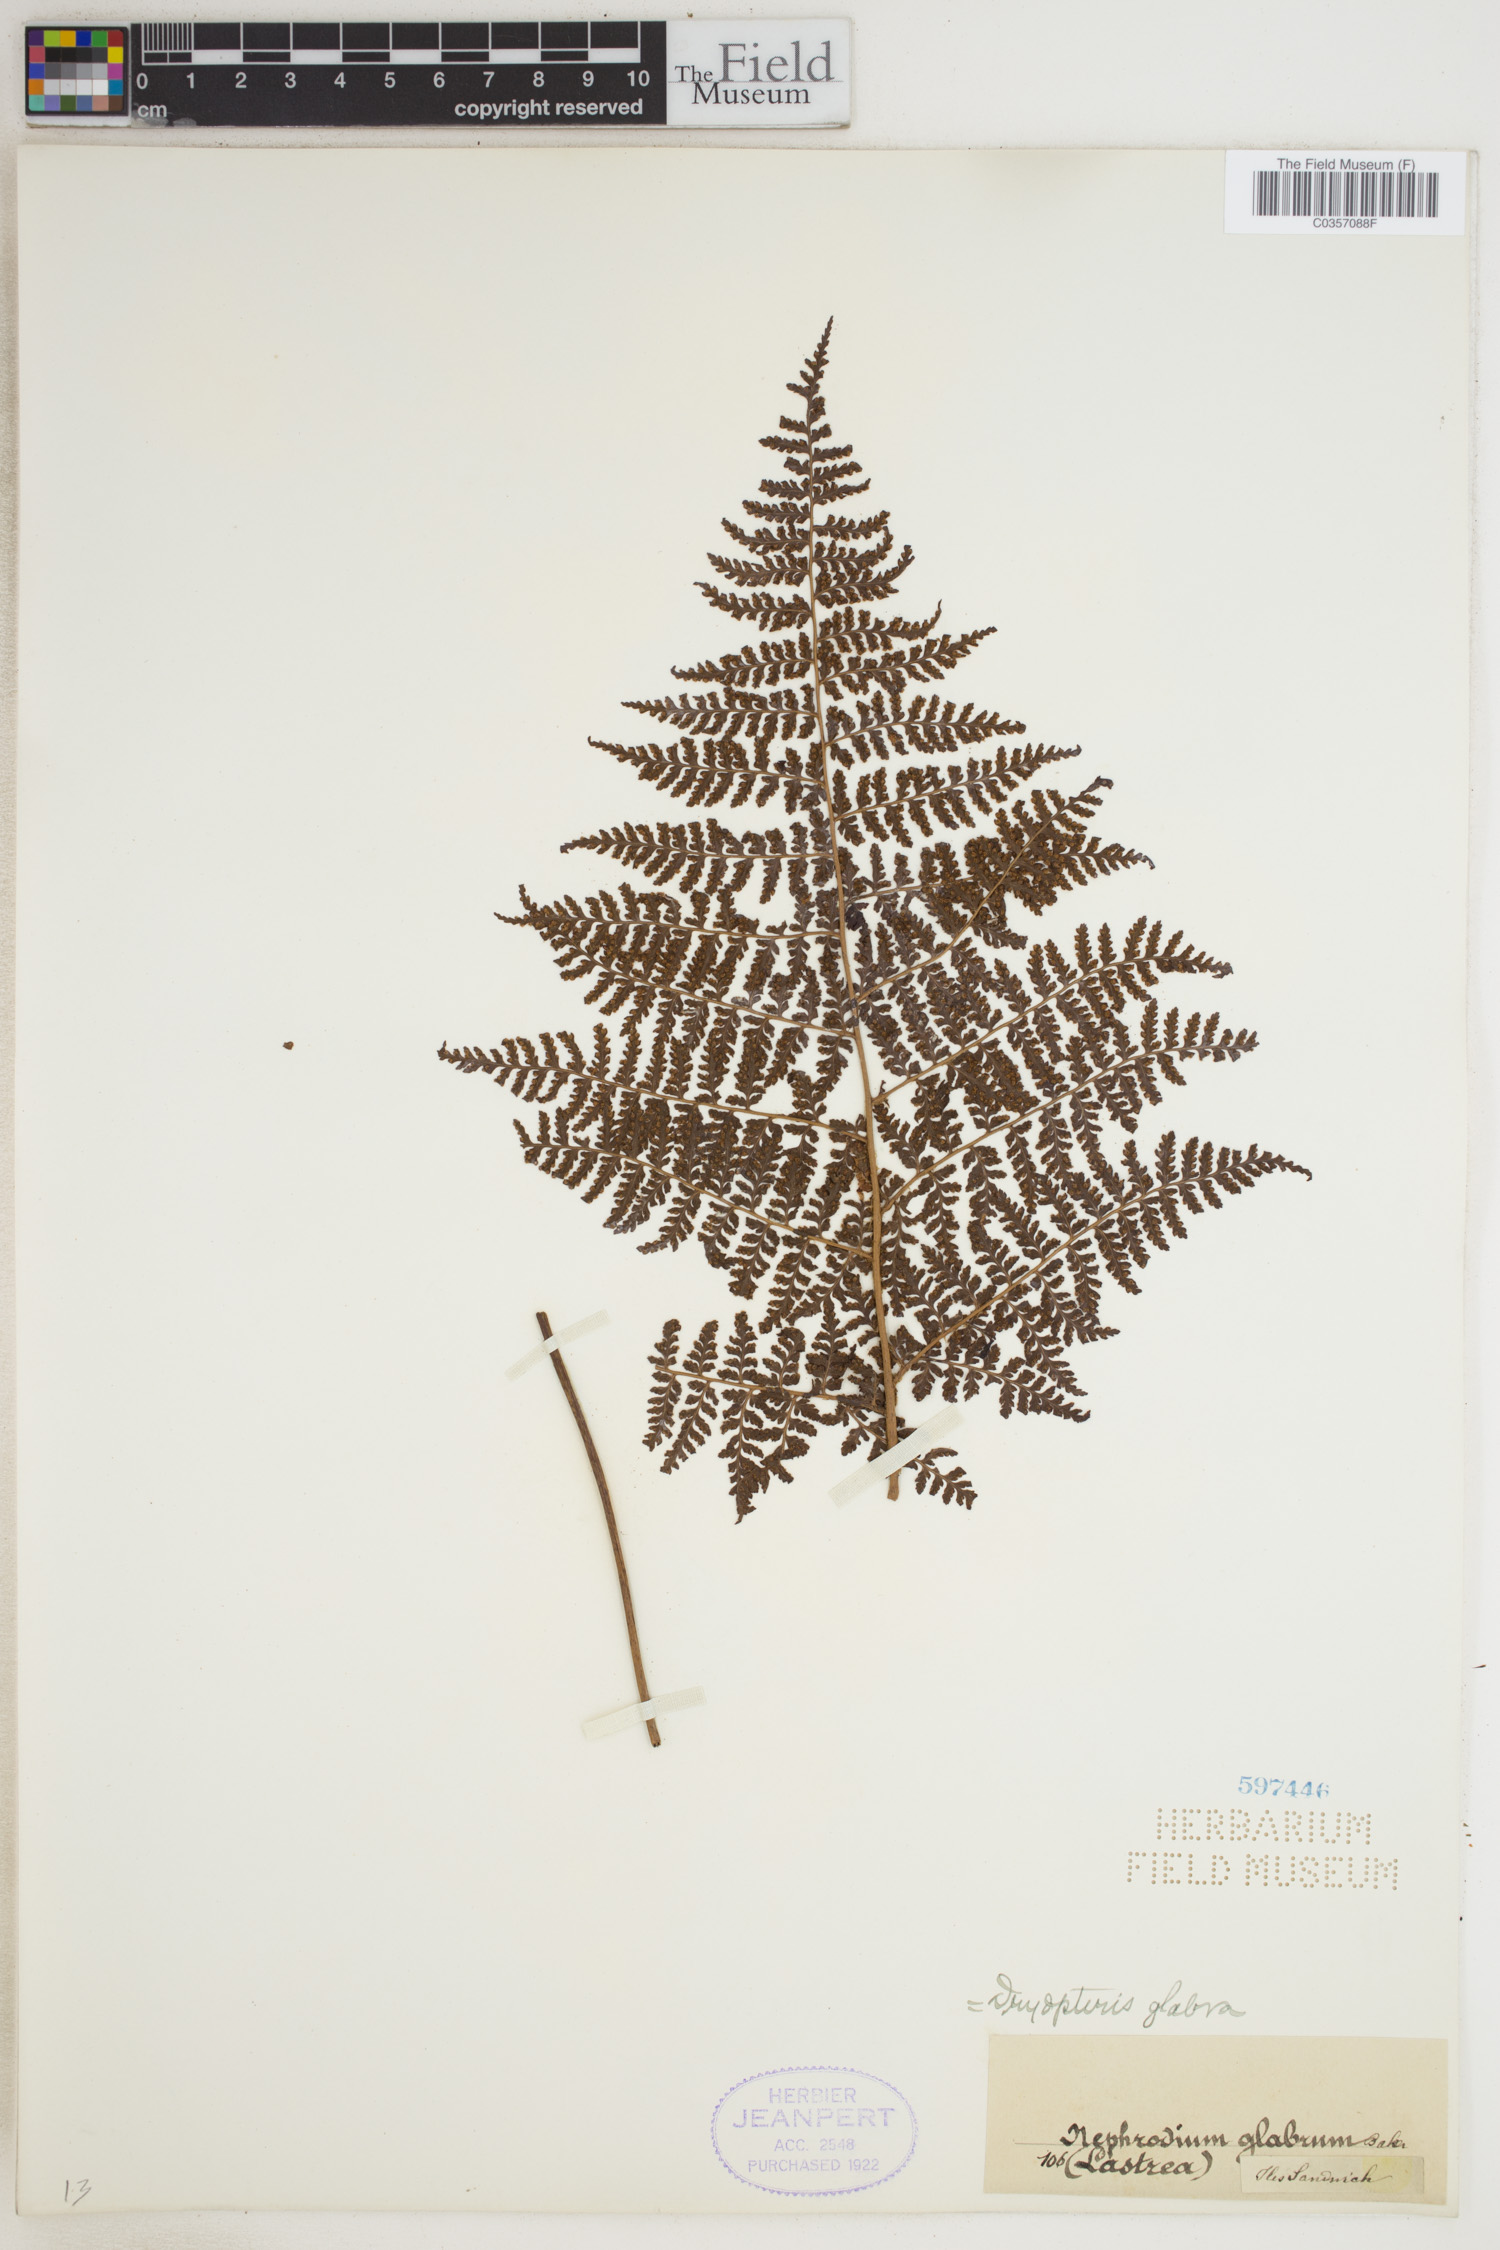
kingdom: Plantae
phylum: Tracheophyta
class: Polypodiopsida
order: Polypodiales
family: Dryopteridaceae
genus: Dryopteris
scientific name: Dryopteris glabra
